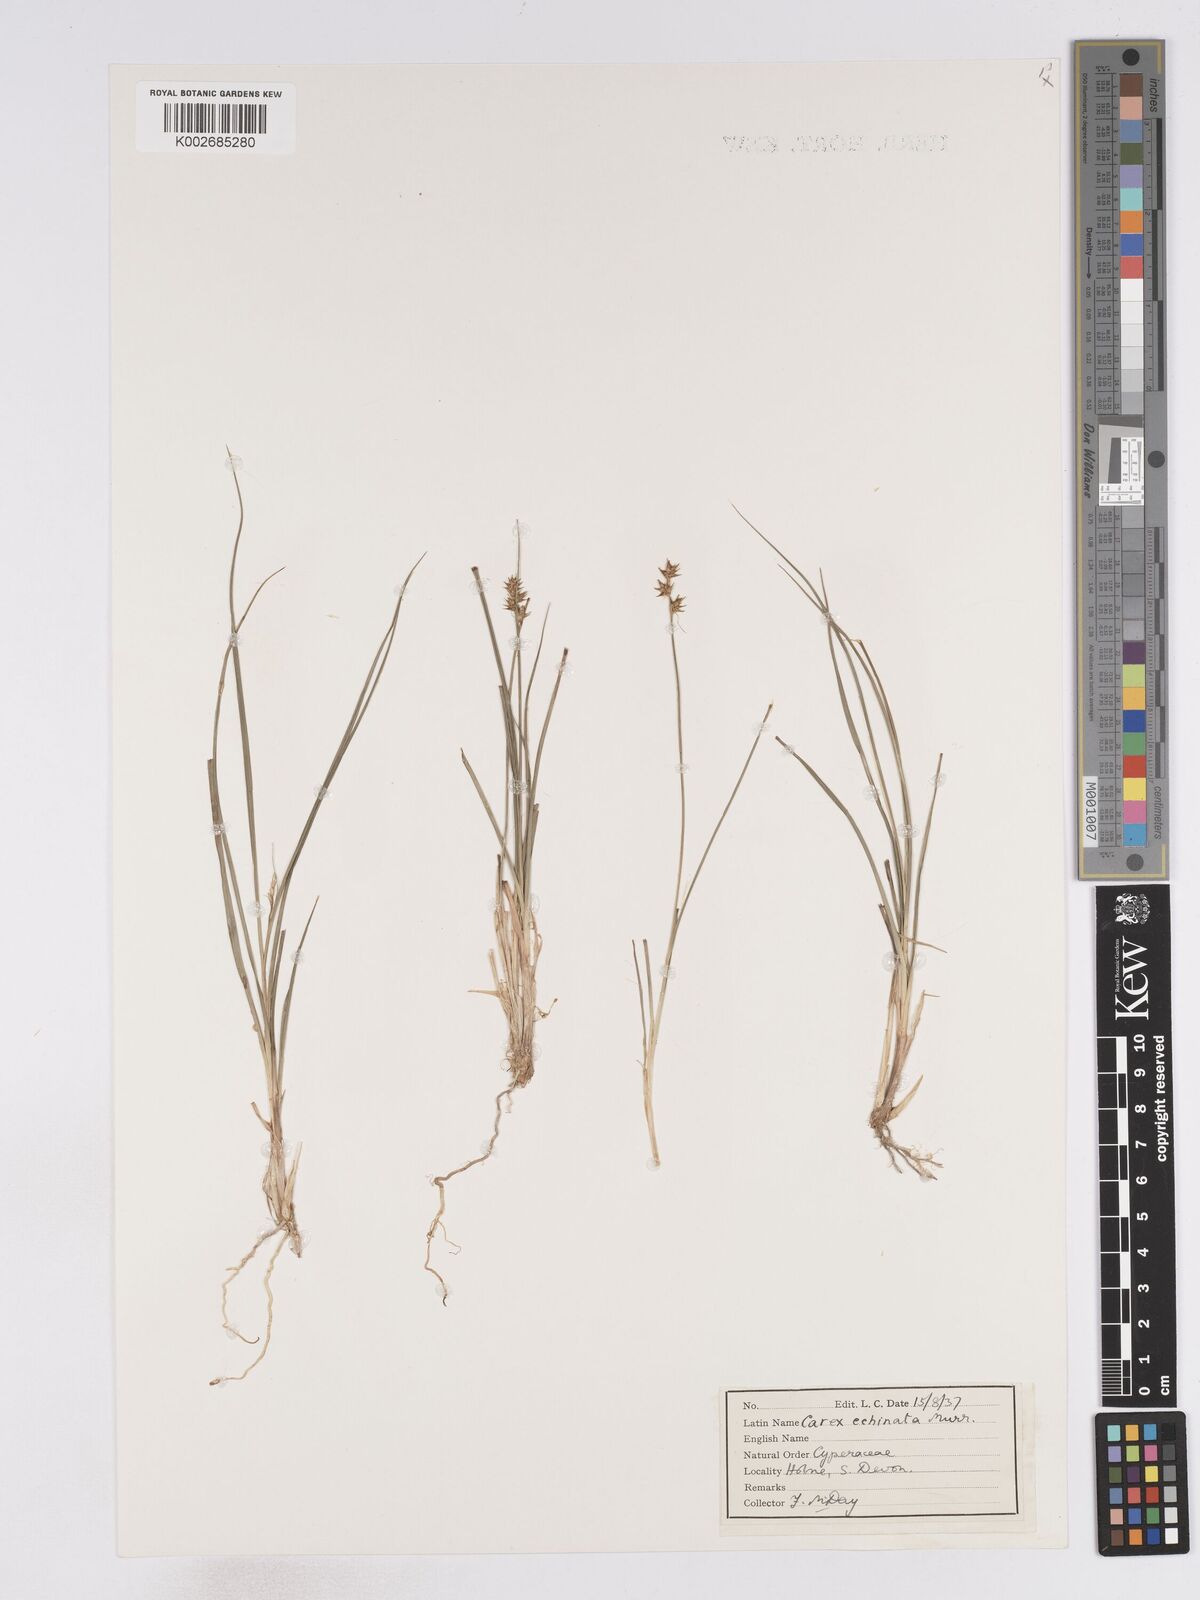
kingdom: Plantae
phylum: Tracheophyta
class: Liliopsida
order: Poales
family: Cyperaceae
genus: Carex
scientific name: Carex echinata
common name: Star sedge
